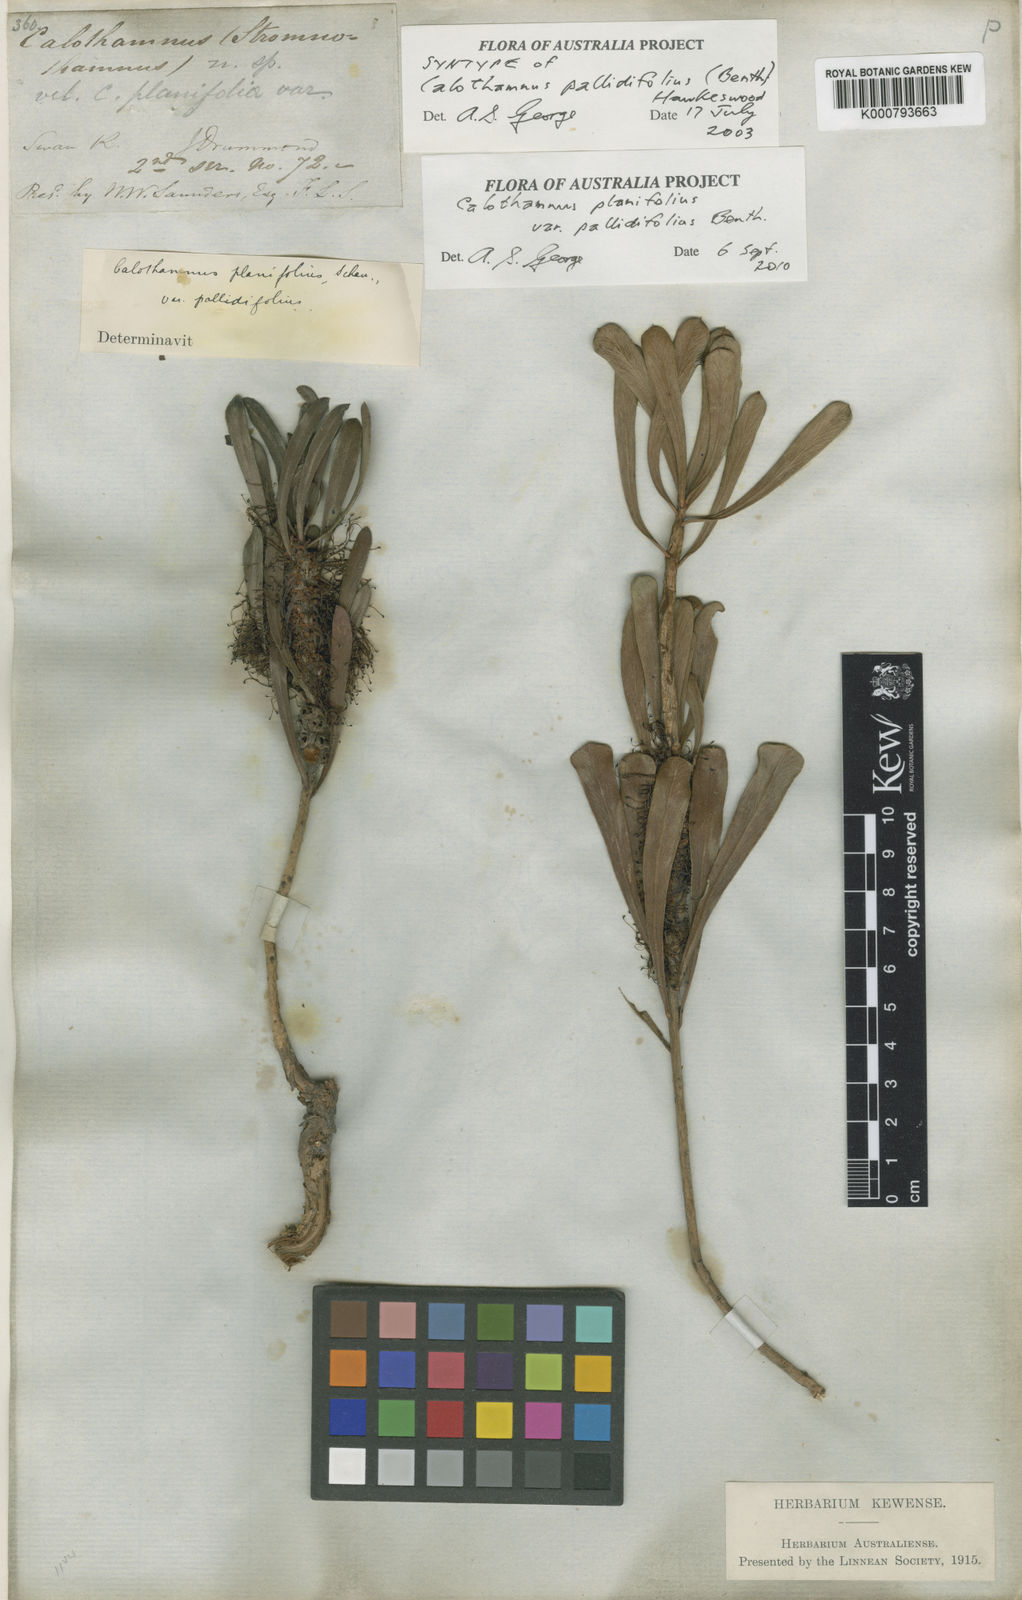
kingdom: Plantae
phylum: Tracheophyta
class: Magnoliopsida
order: Myrtales
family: Myrtaceae
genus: Melaleuca
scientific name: Melaleuca planifolia
